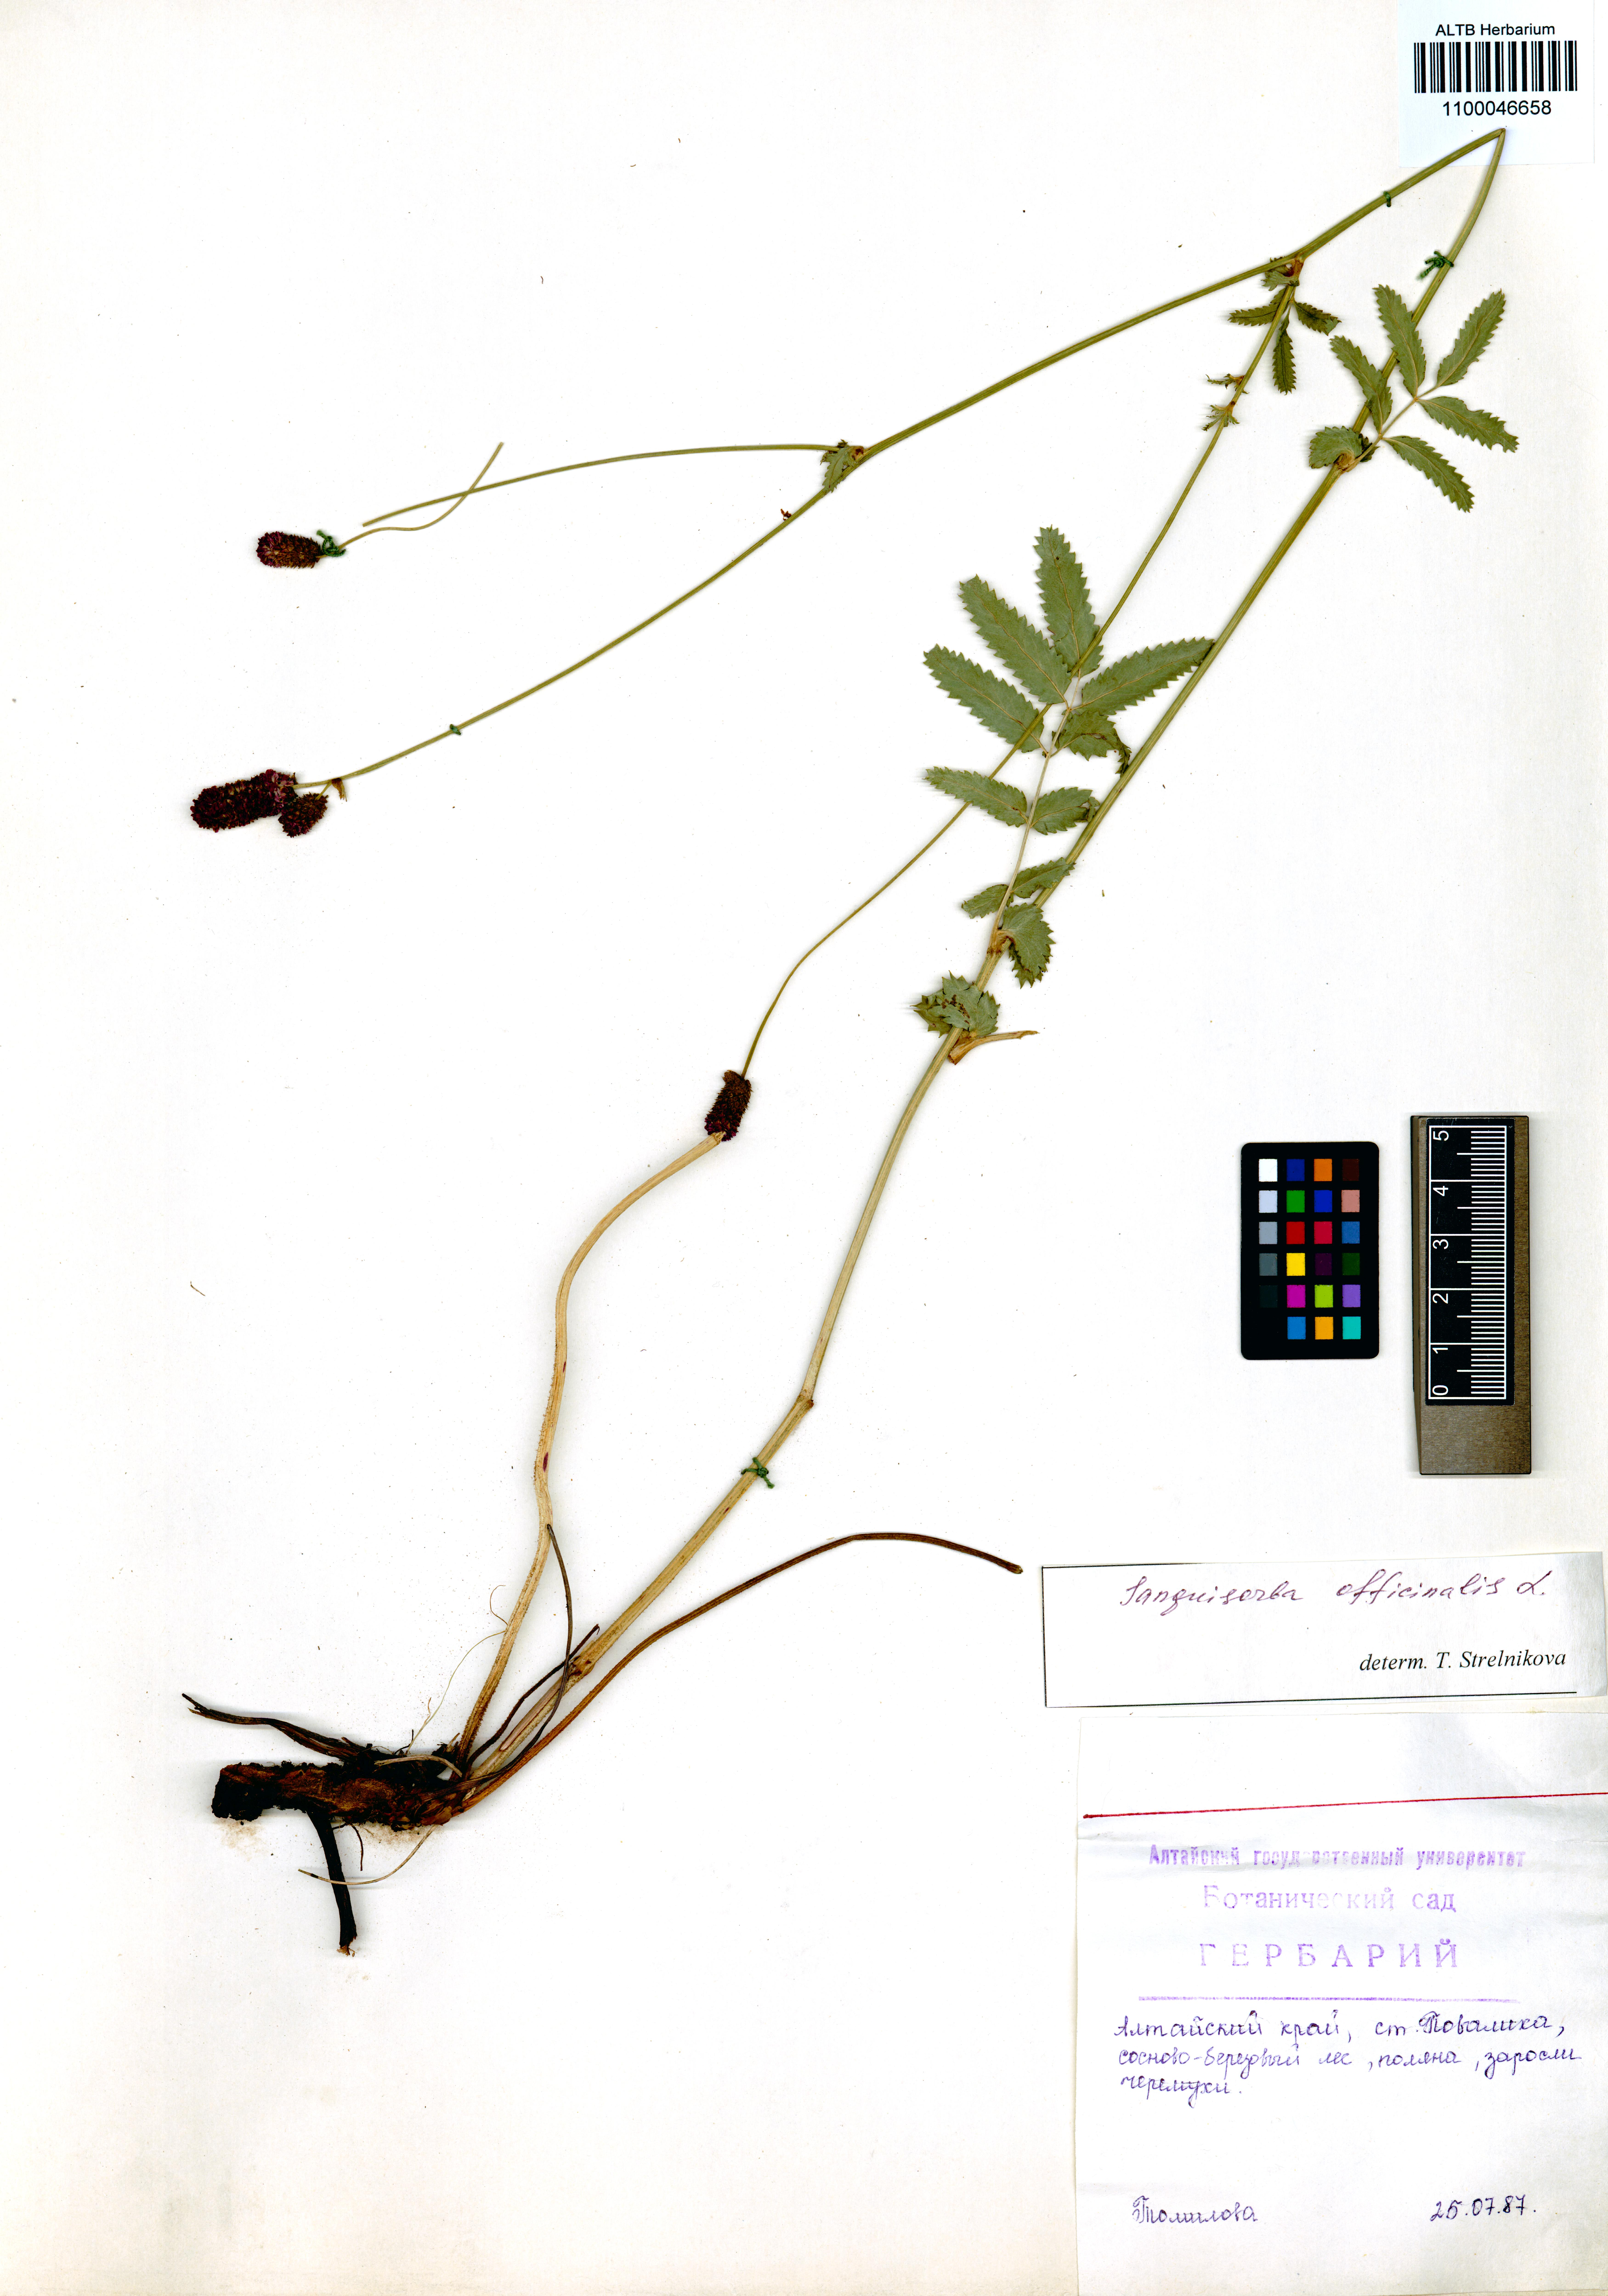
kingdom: Plantae
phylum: Tracheophyta
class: Magnoliopsida
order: Rosales
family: Rosaceae
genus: Sanguisorba
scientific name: Sanguisorba officinalis
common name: Great burnet
